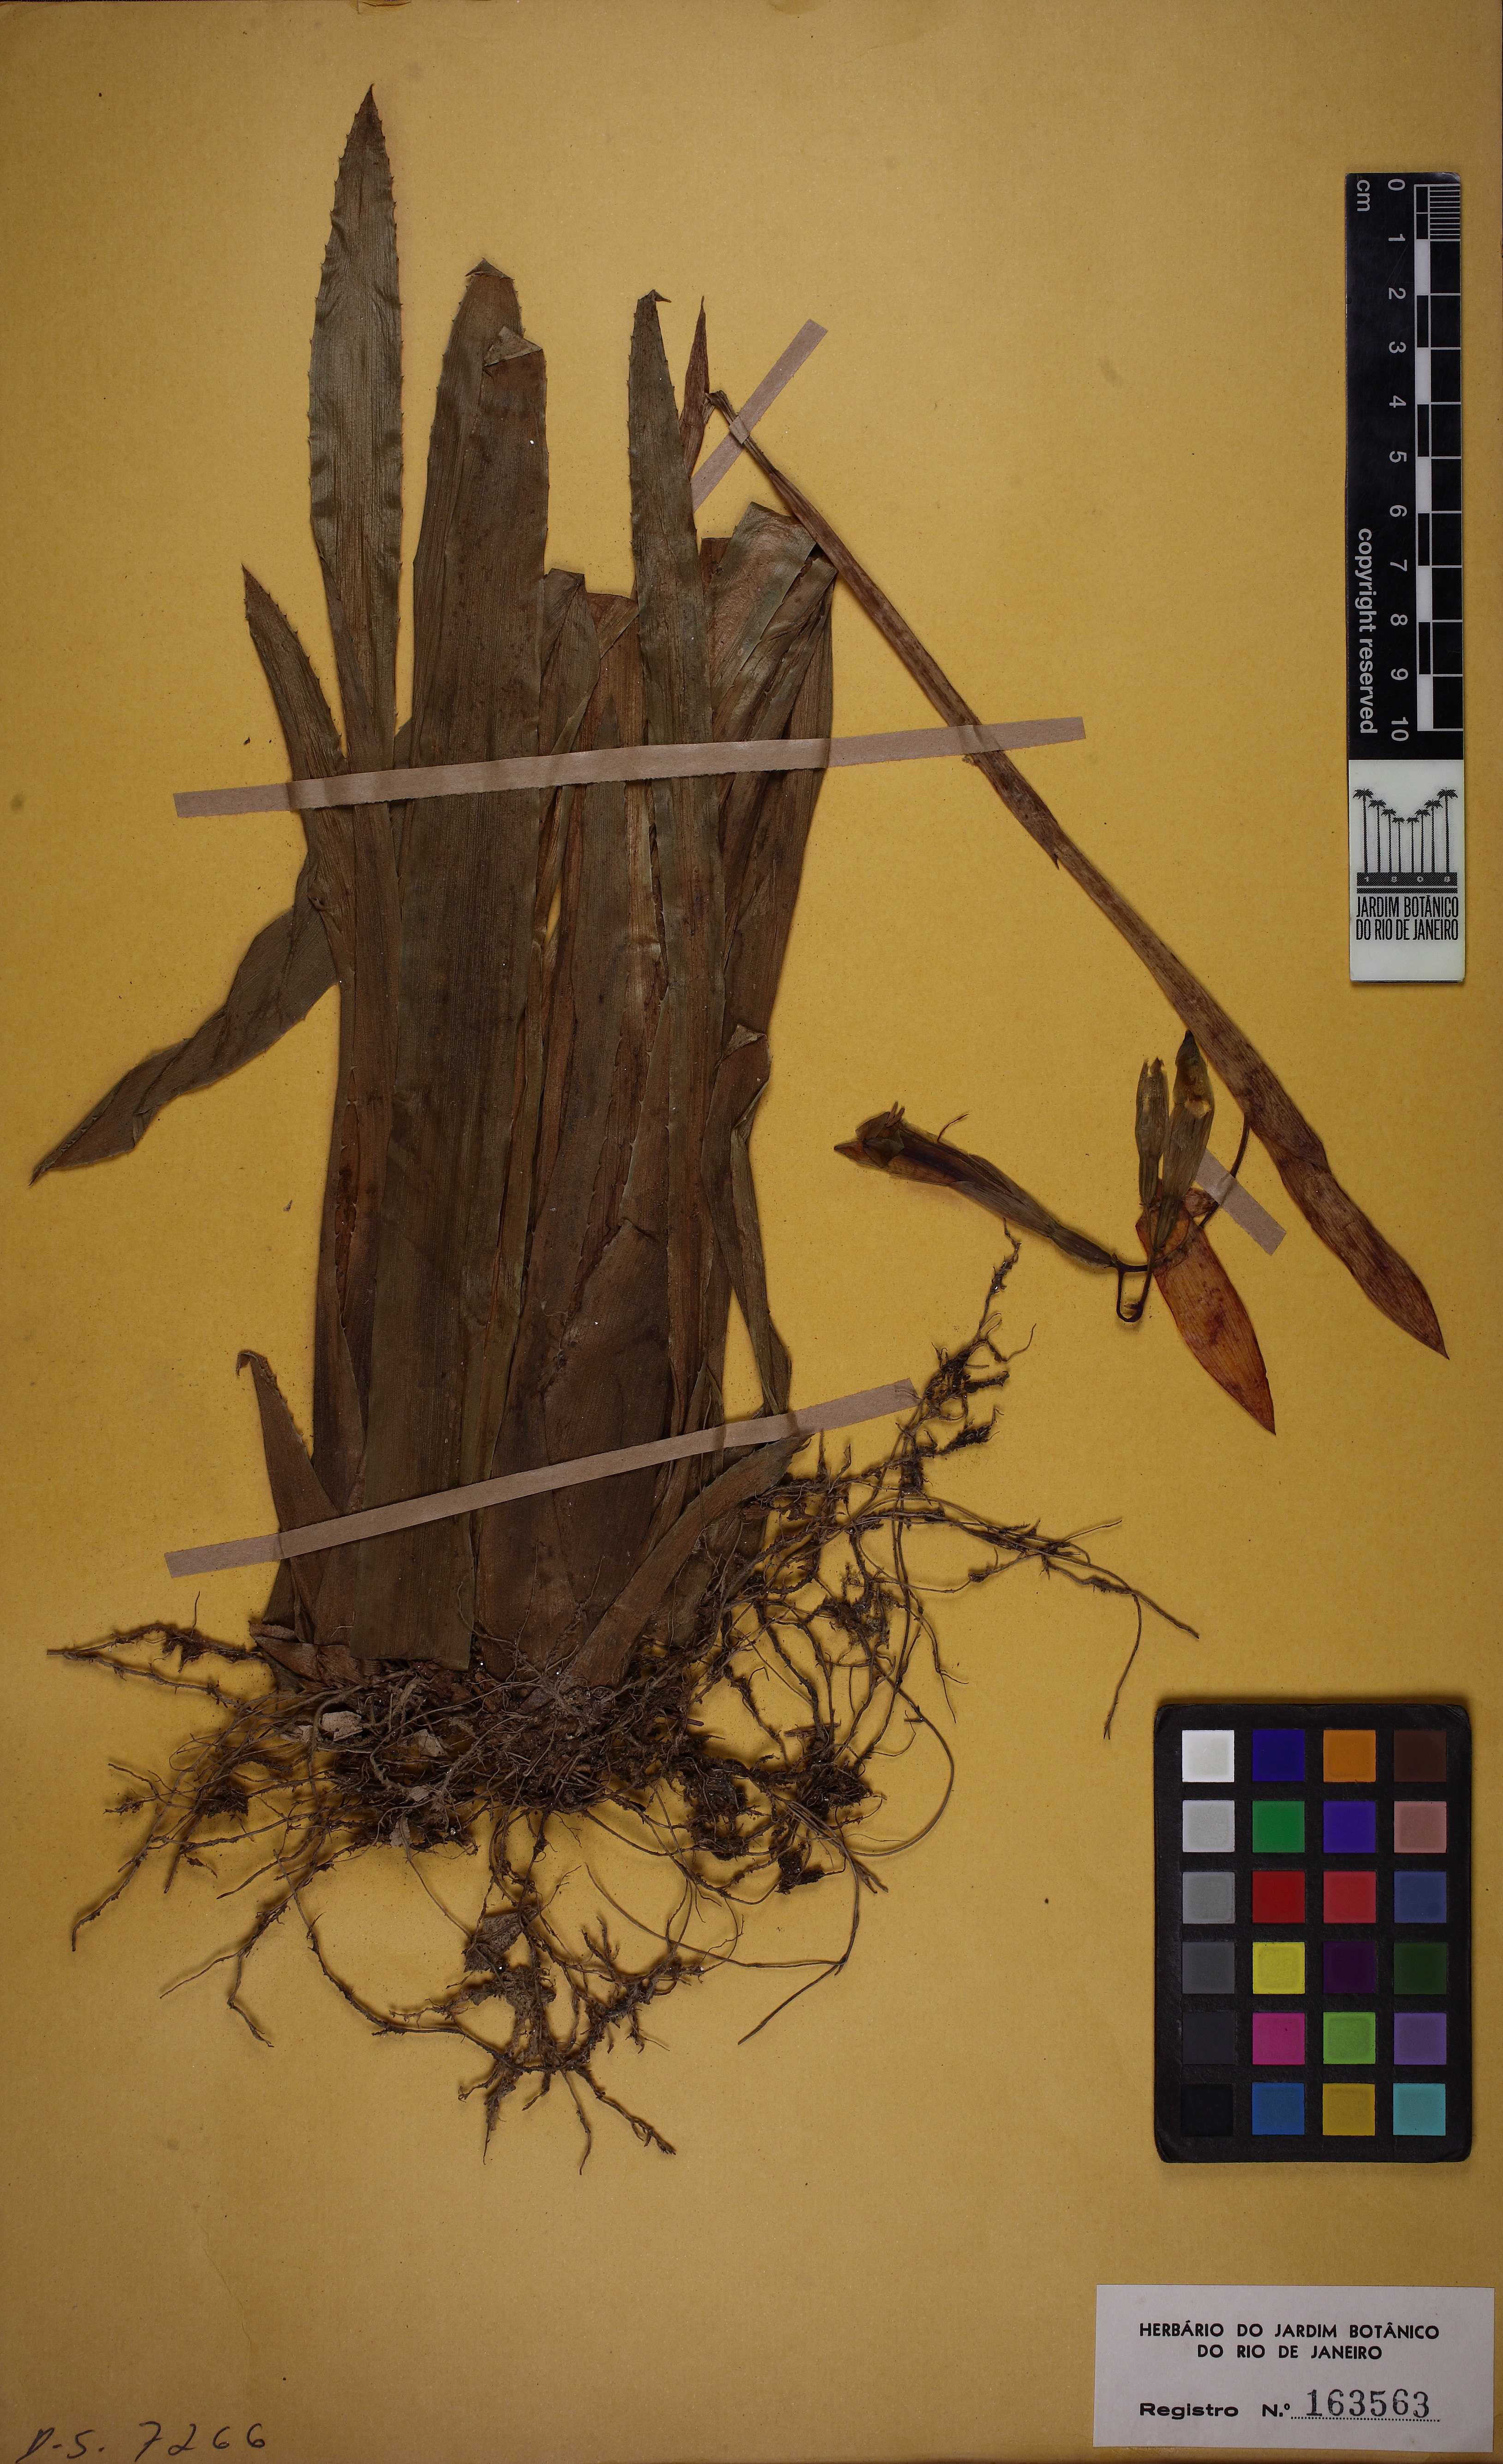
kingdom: Plantae
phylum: Tracheophyta
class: Liliopsida
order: Poales
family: Bromeliaceae
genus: Billbergia
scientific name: Billbergia distachia
